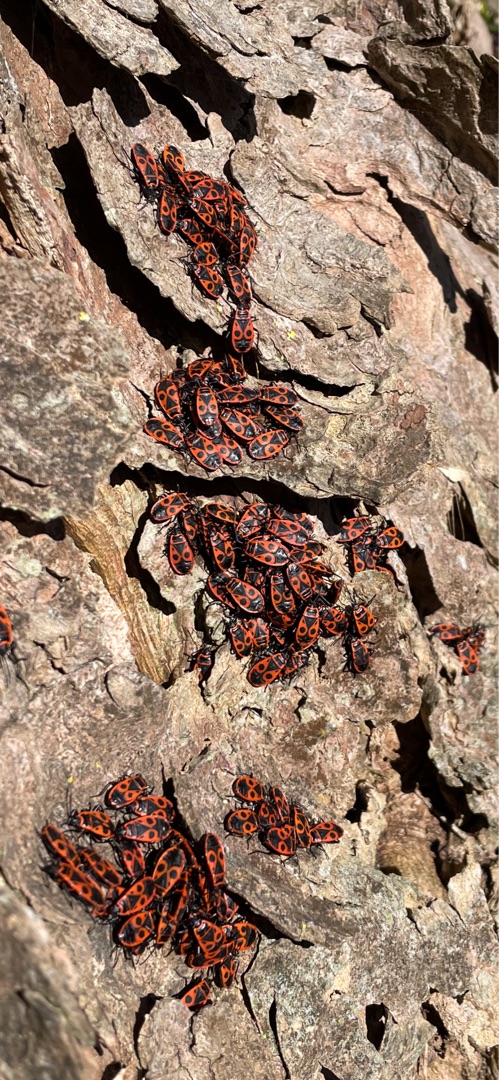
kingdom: Animalia
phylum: Arthropoda
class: Insecta
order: Lepidoptera
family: Nymphalidae
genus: Aglais
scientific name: Aglais urticae
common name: Nældens takvinge
